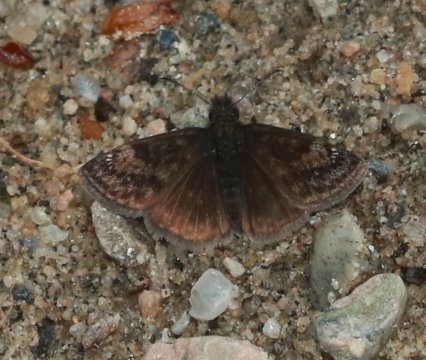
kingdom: Animalia
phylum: Arthropoda
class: Insecta
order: Lepidoptera
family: Hesperiidae
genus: Gesta
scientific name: Gesta
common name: Columbine Duskywing
